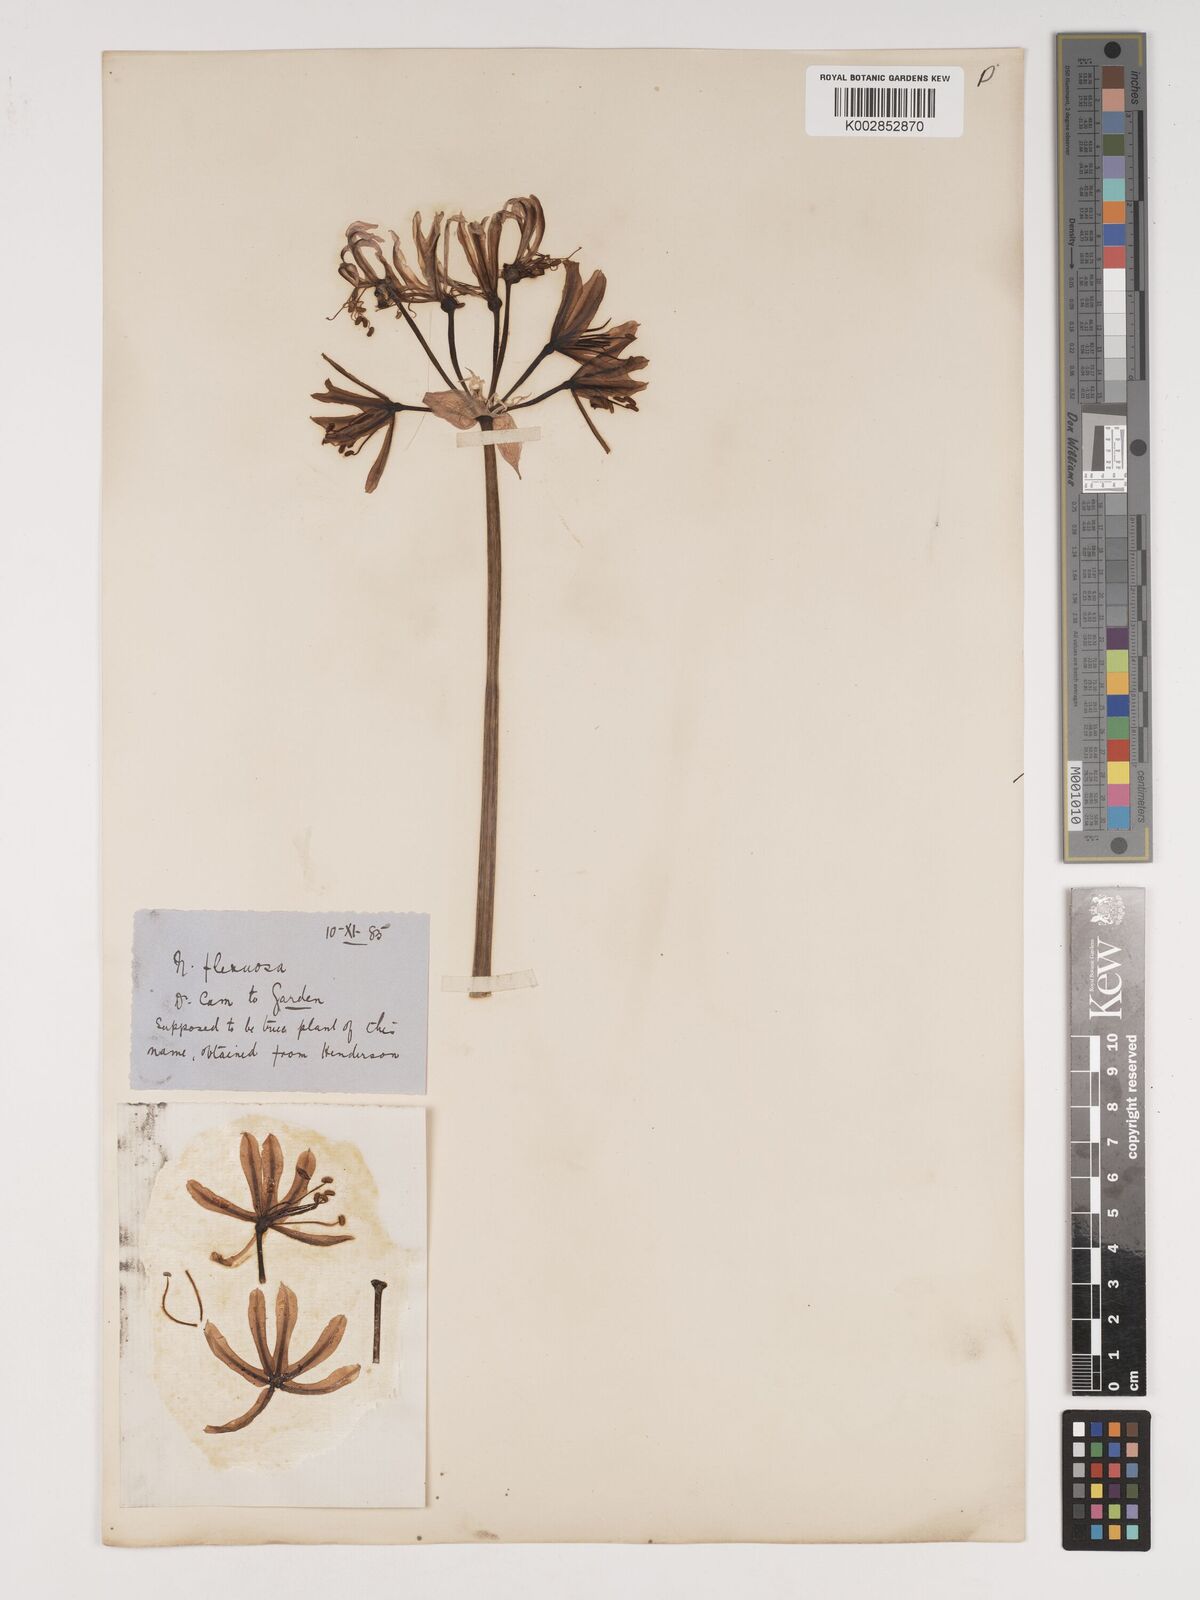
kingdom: Plantae
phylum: Tracheophyta
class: Liliopsida
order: Asparagales
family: Amaryllidaceae
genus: Nerine
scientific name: Nerine undulata
